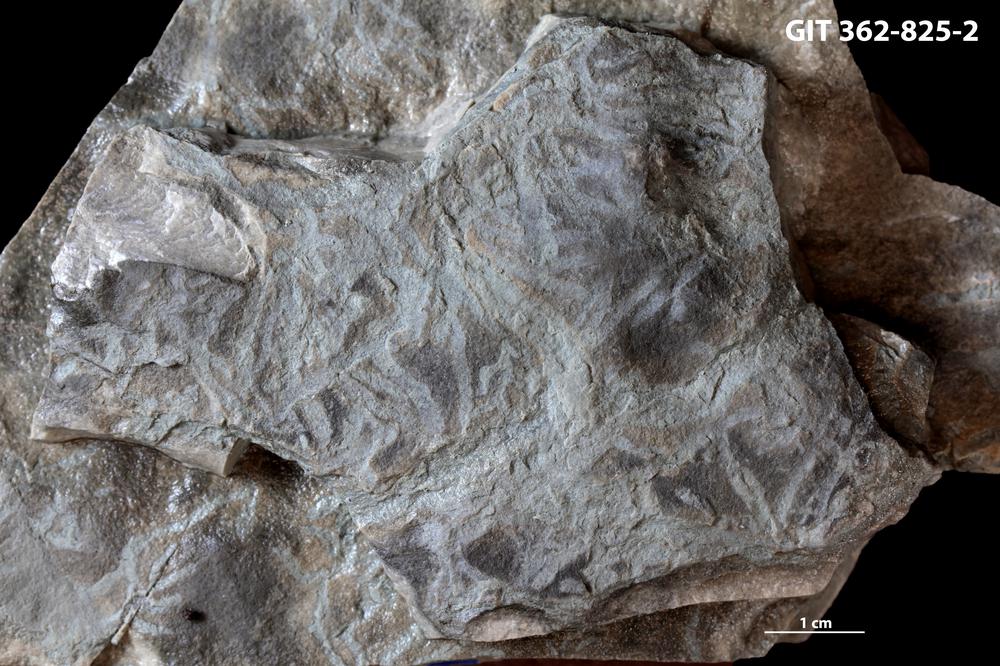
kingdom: Animalia
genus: Chondrites
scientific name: Chondrites
